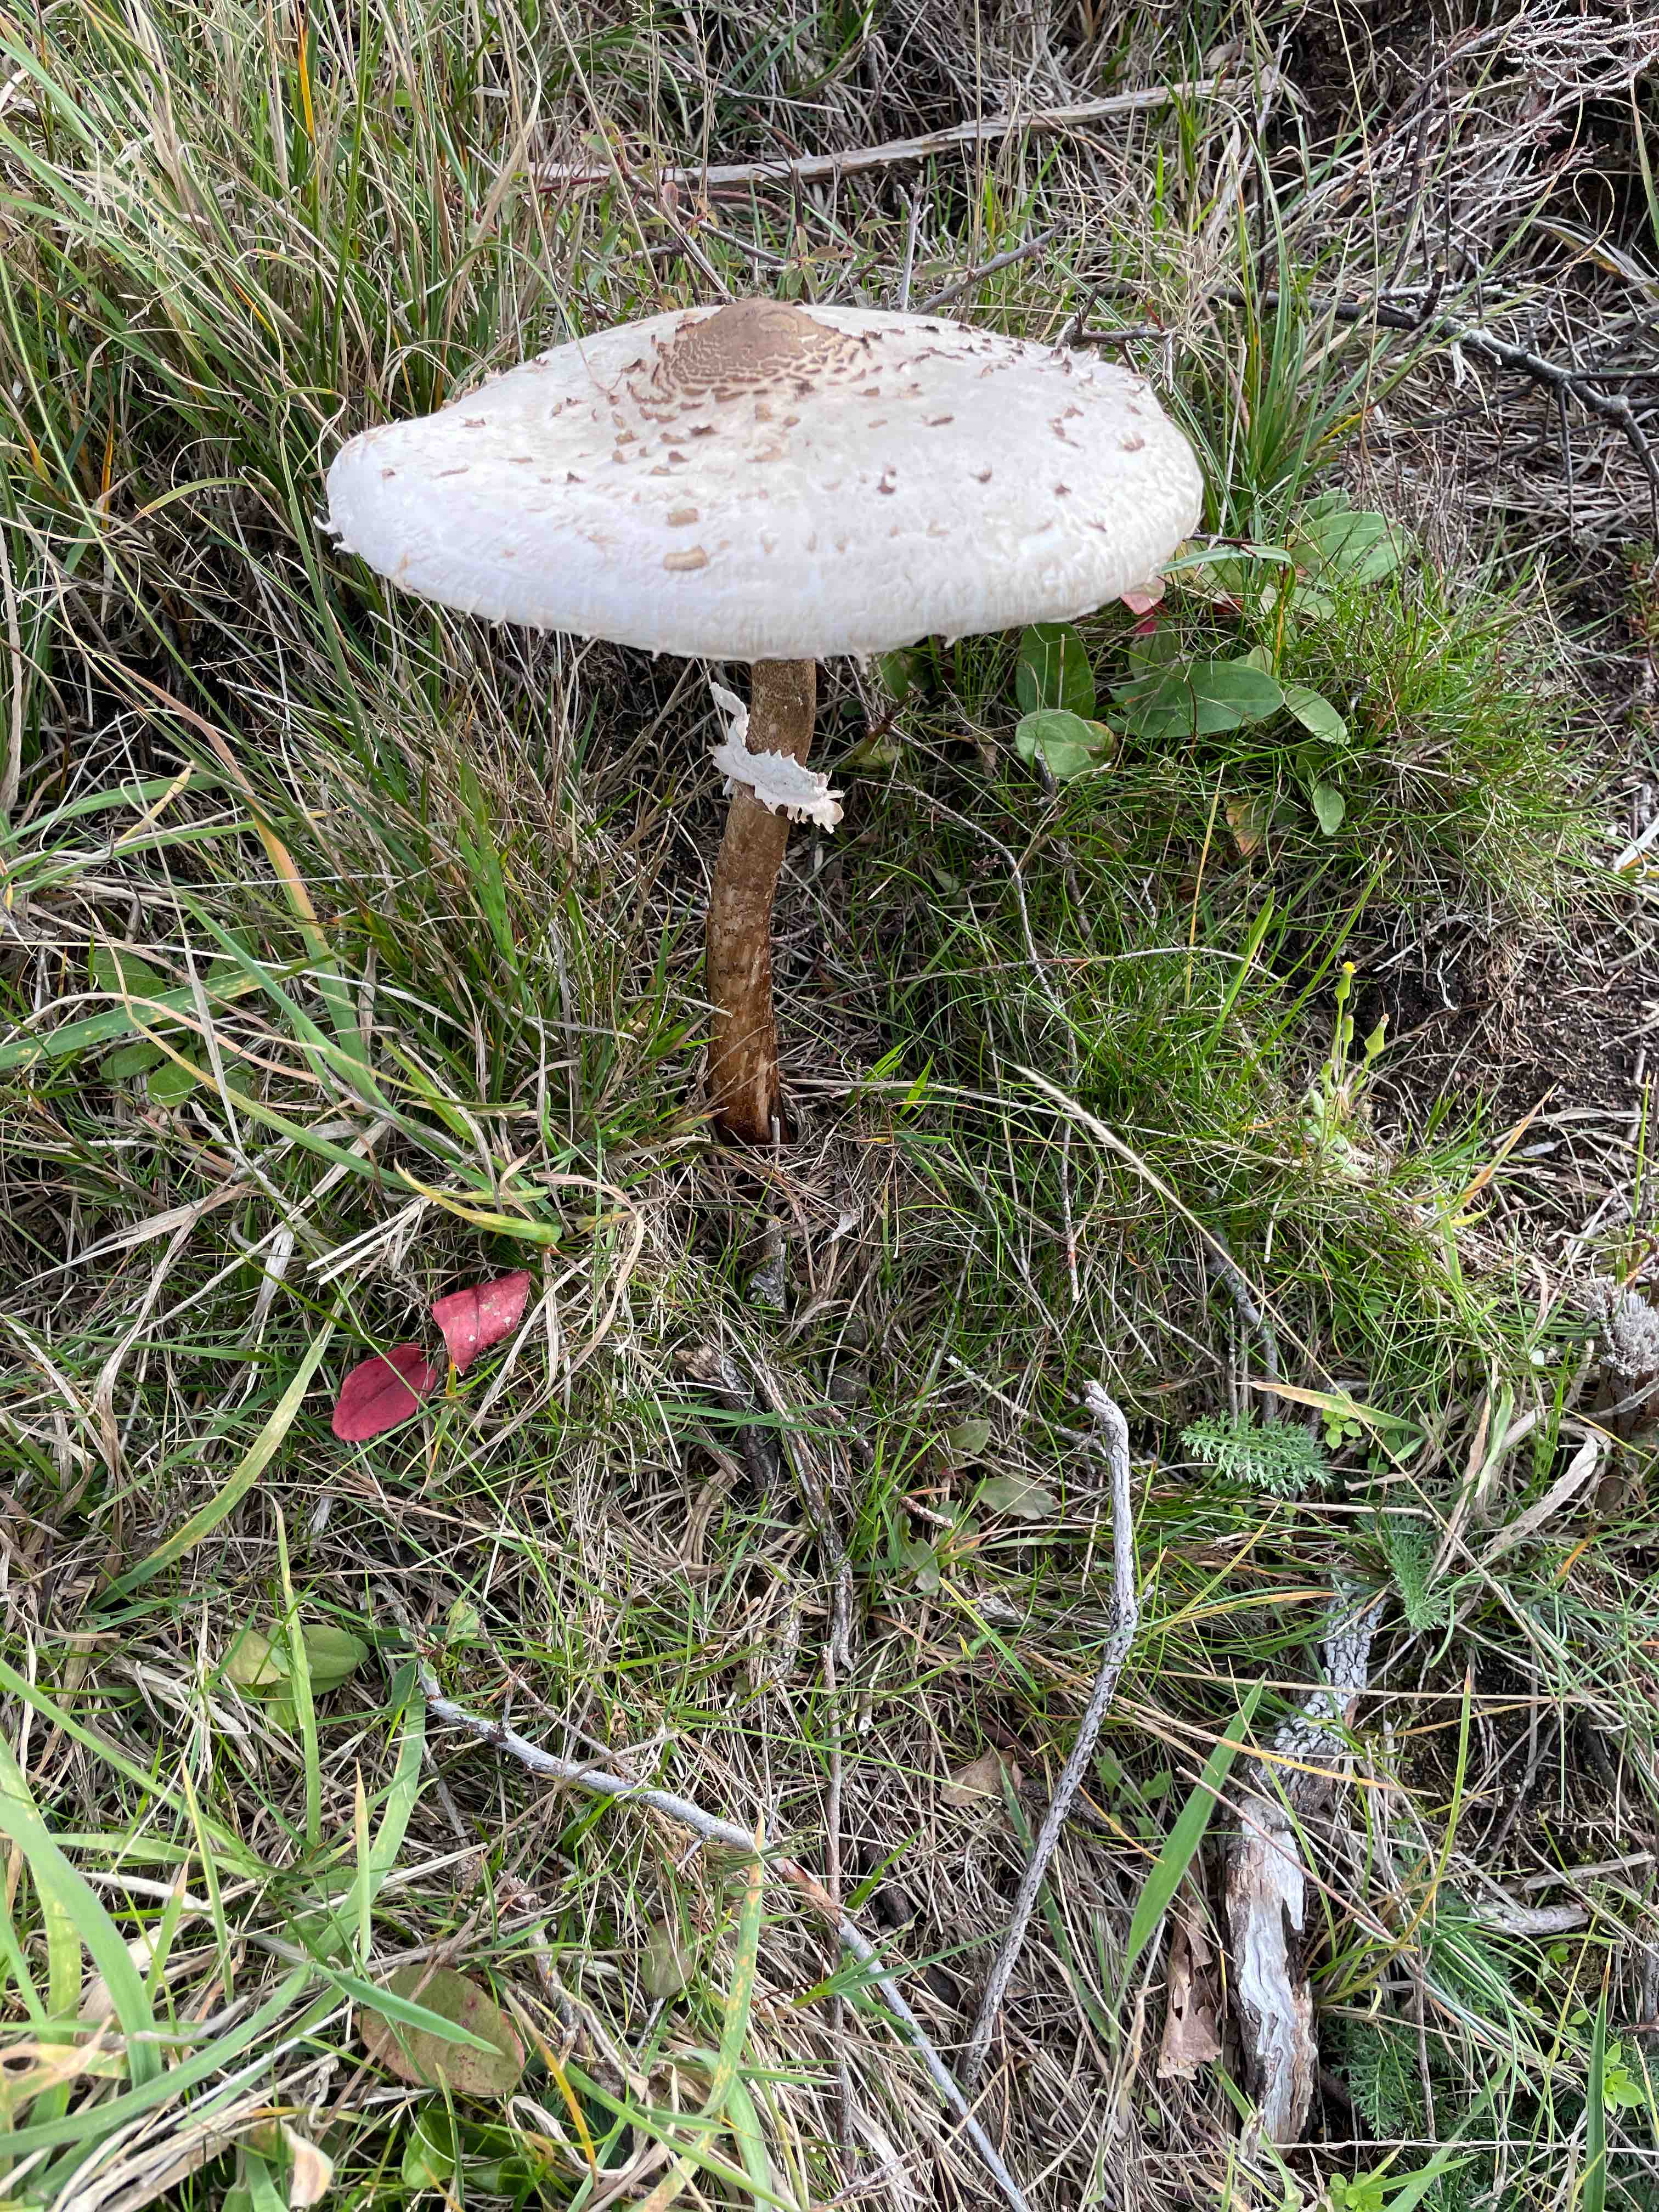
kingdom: Fungi
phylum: Basidiomycota
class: Agaricomycetes
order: Agaricales
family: Agaricaceae
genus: Macrolepiota
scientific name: Macrolepiota procera
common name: stor kæmpeparasolhat
